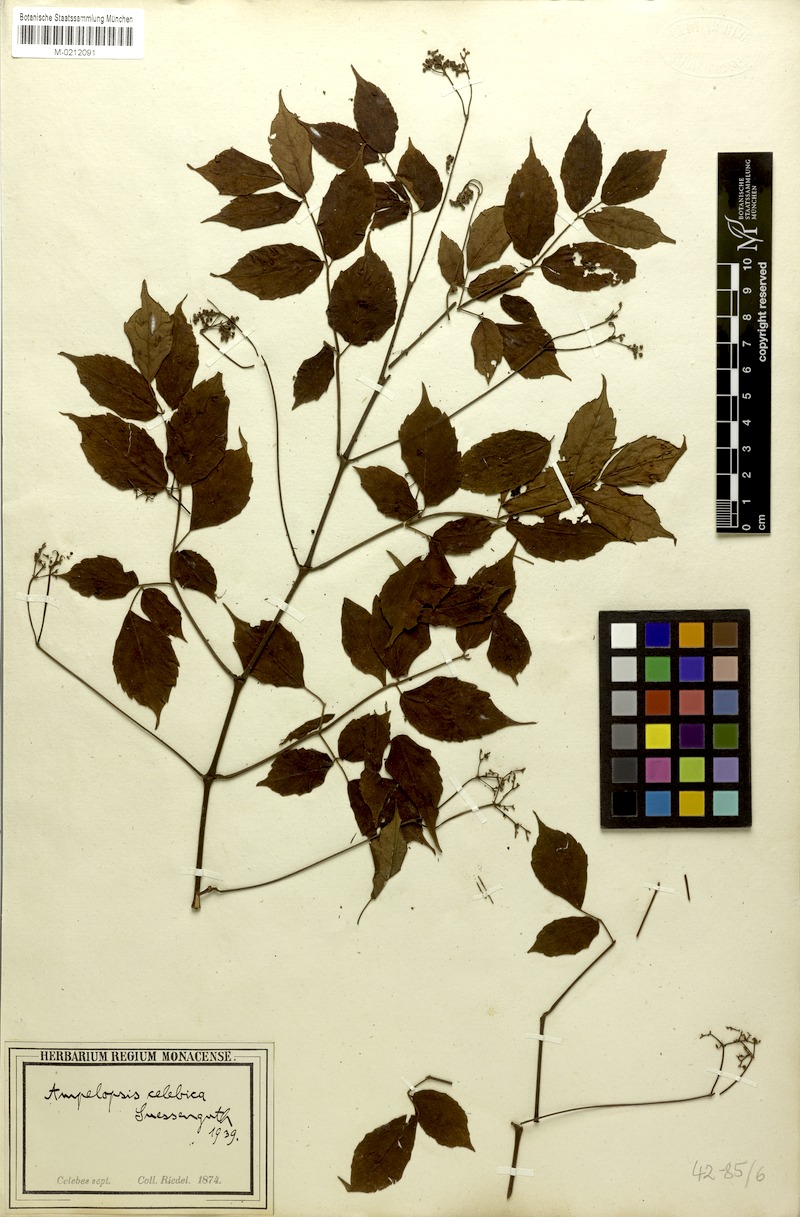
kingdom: Plantae
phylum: Tracheophyta
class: Magnoliopsida
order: Vitales
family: Vitaceae
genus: Nekemias
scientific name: Nekemias celebica
